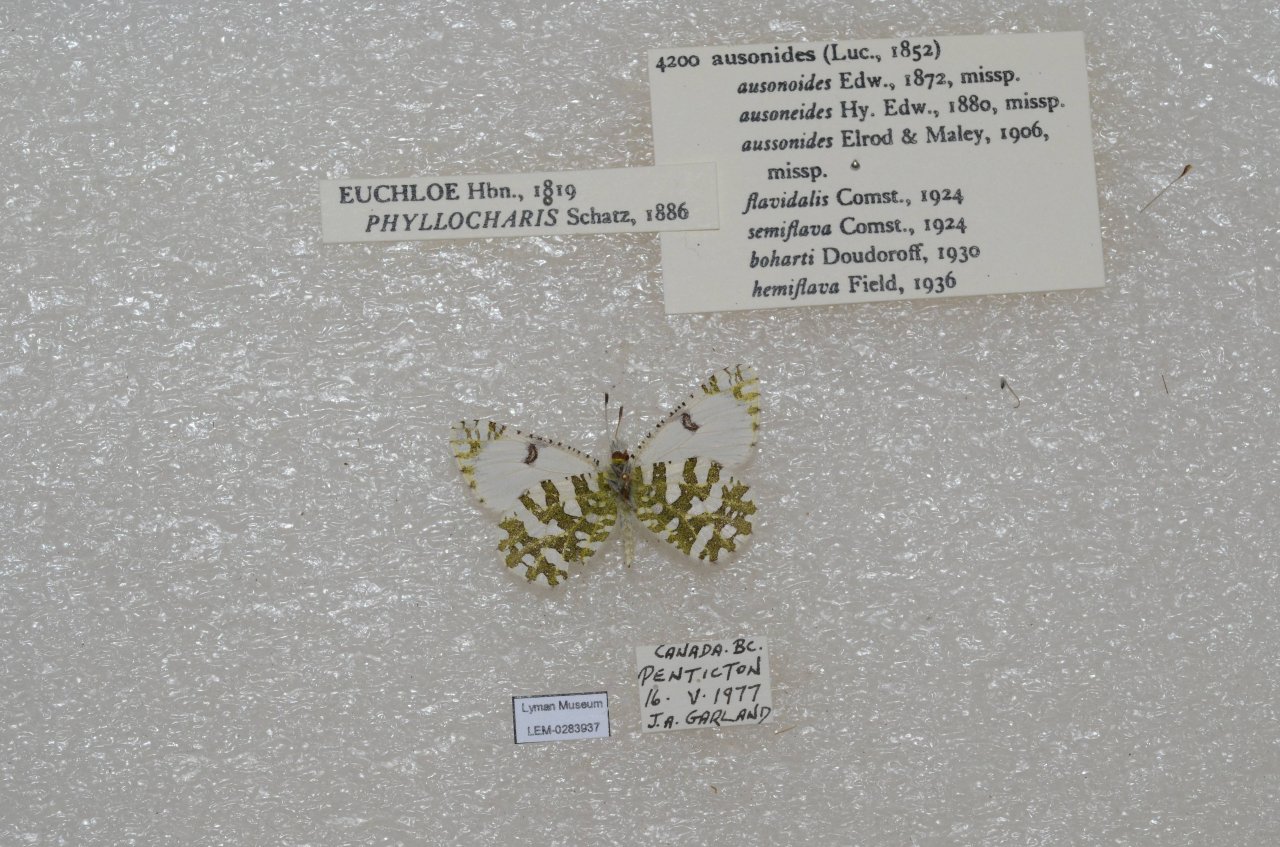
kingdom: Animalia
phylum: Arthropoda
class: Insecta
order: Lepidoptera
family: Pieridae
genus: Euchloe
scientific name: Euchloe ausonides
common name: Large Marble
